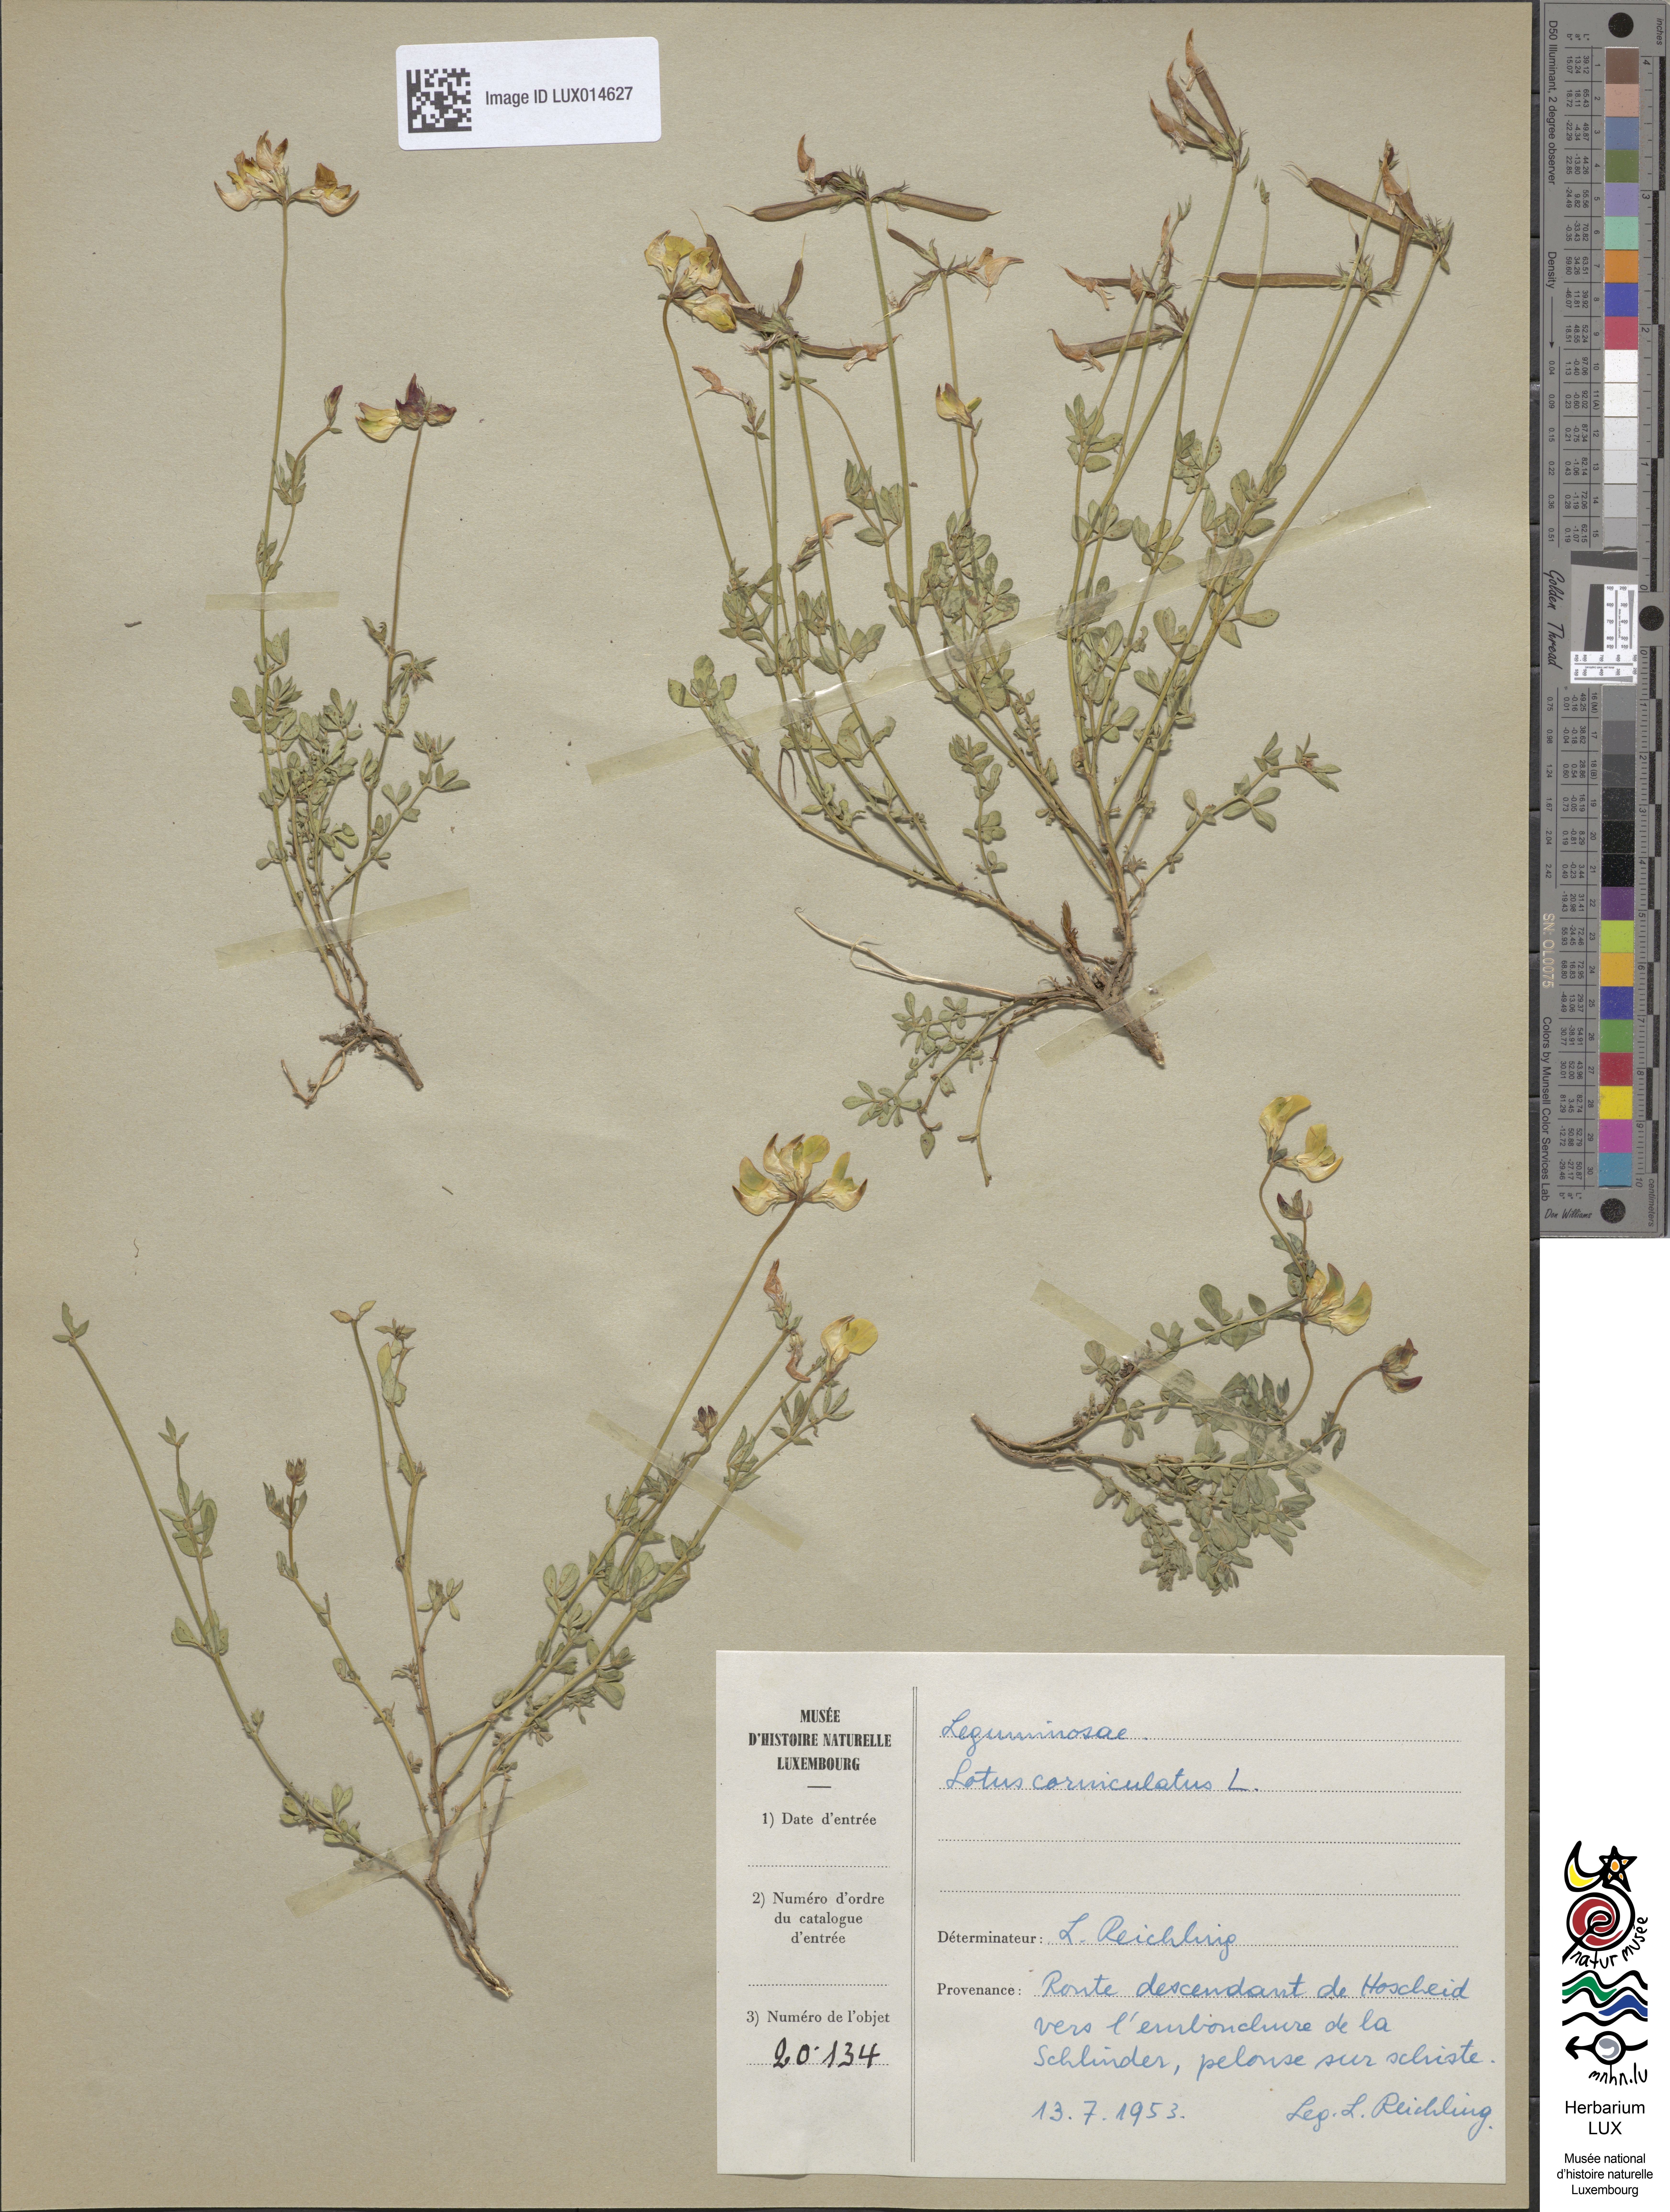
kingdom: Plantae
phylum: Tracheophyta
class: Magnoliopsida
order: Fabales
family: Fabaceae
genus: Lotus
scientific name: Lotus corniculatus
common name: Common bird's-foot-trefoil
